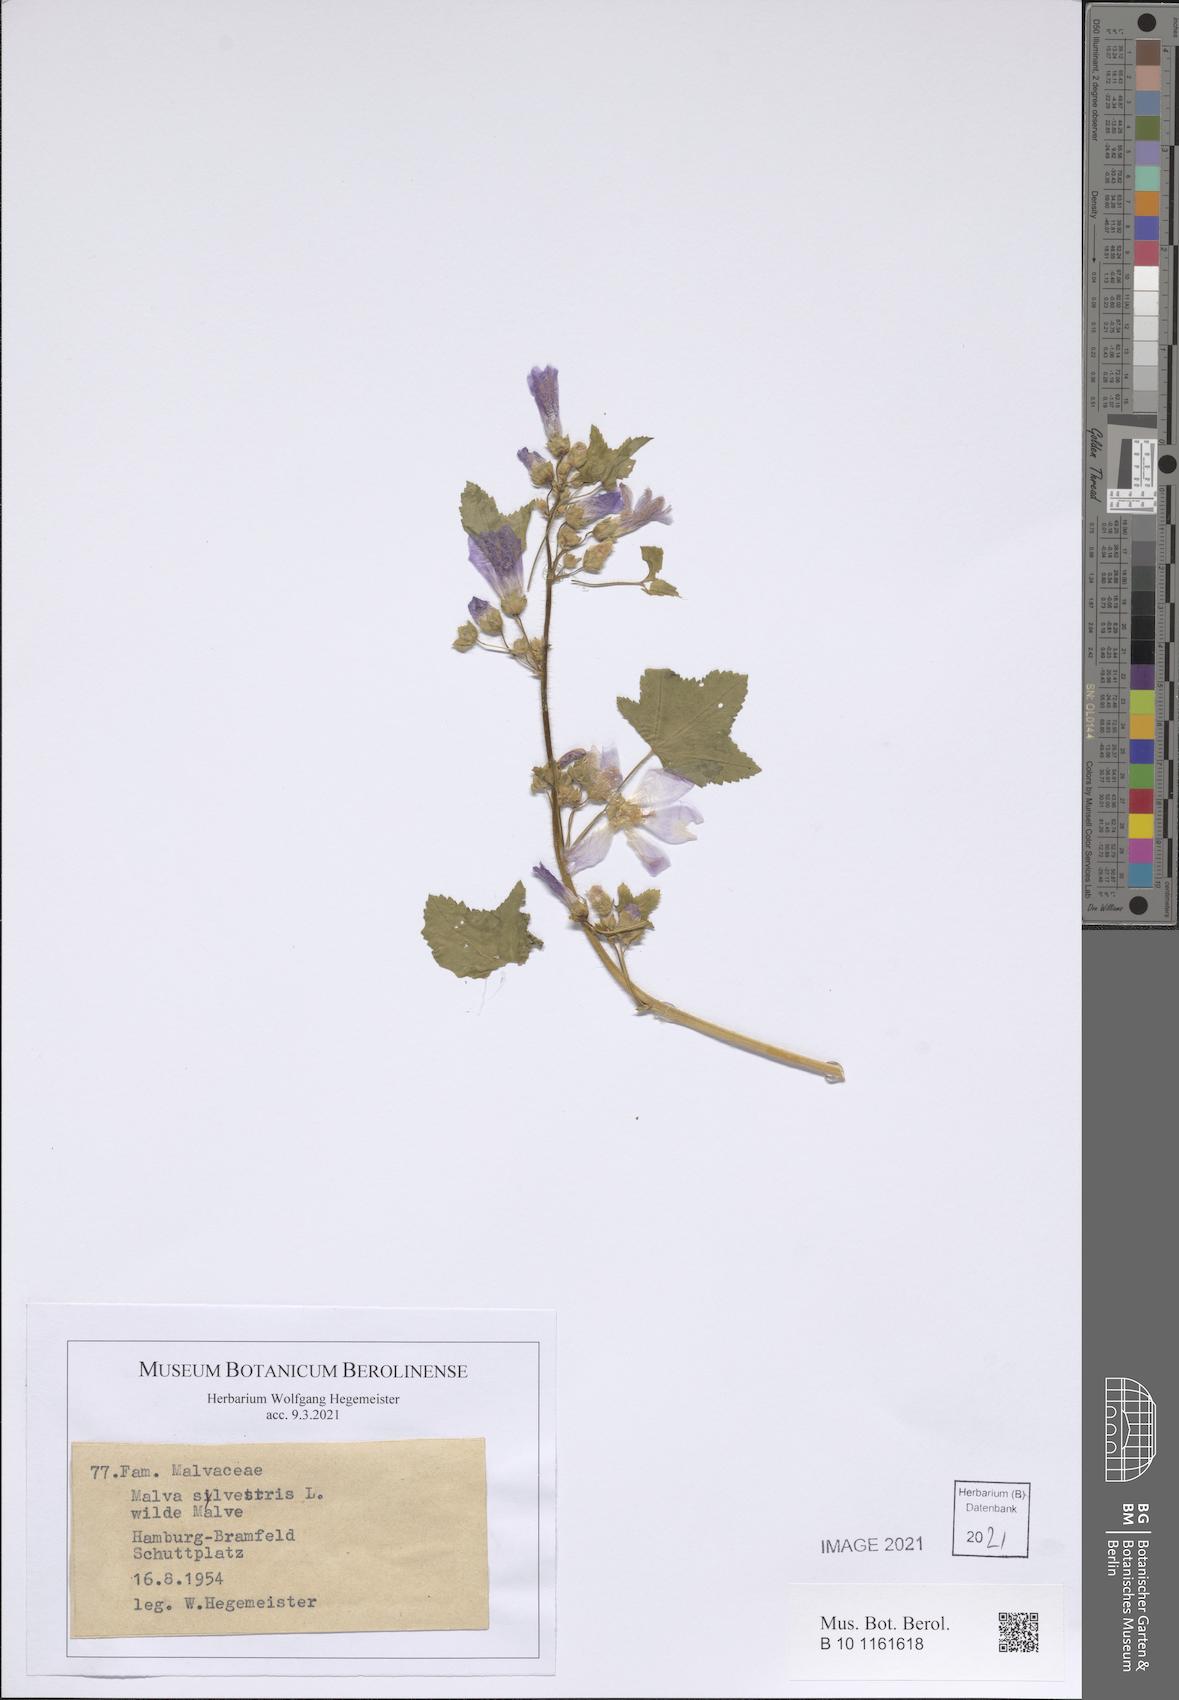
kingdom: Plantae
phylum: Tracheophyta
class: Magnoliopsida
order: Malvales
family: Malvaceae
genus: Malva
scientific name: Malva sylvestris
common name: Common mallow
